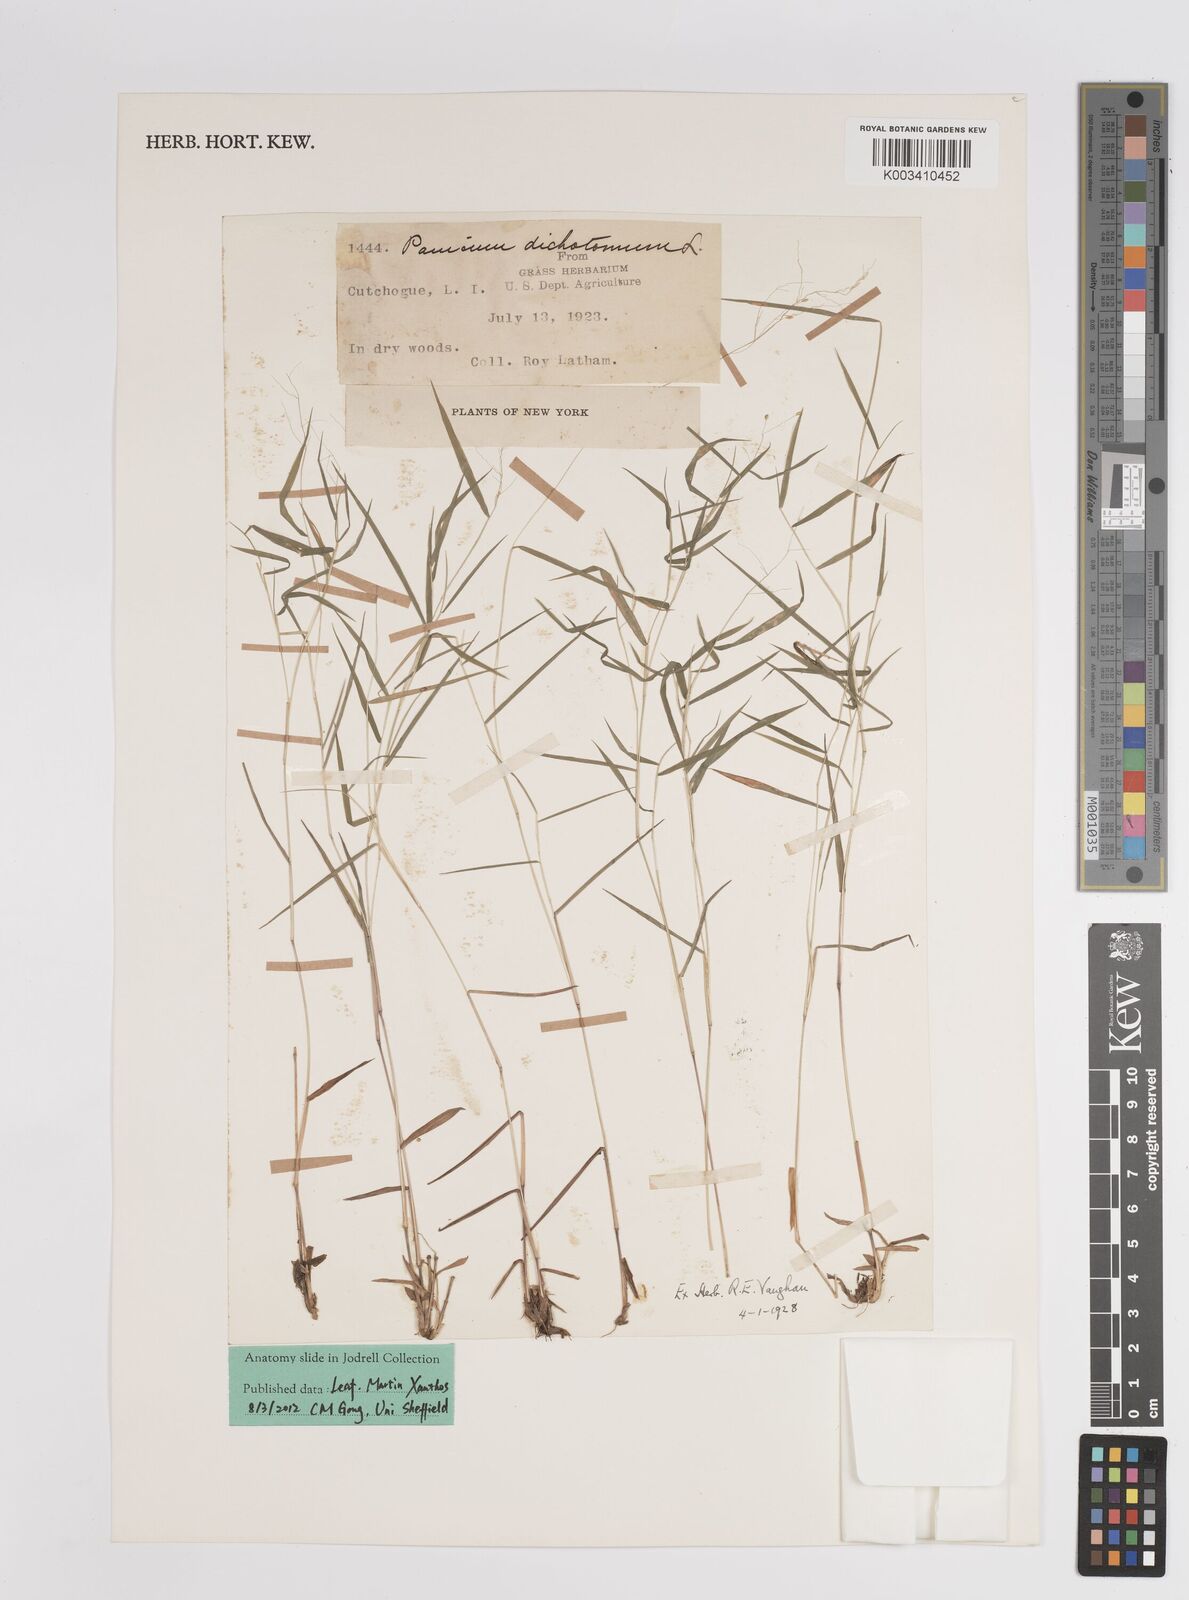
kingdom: Plantae
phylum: Tracheophyta
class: Liliopsida
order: Poales
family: Poaceae
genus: Dichanthelium
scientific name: Dichanthelium polyanthes
